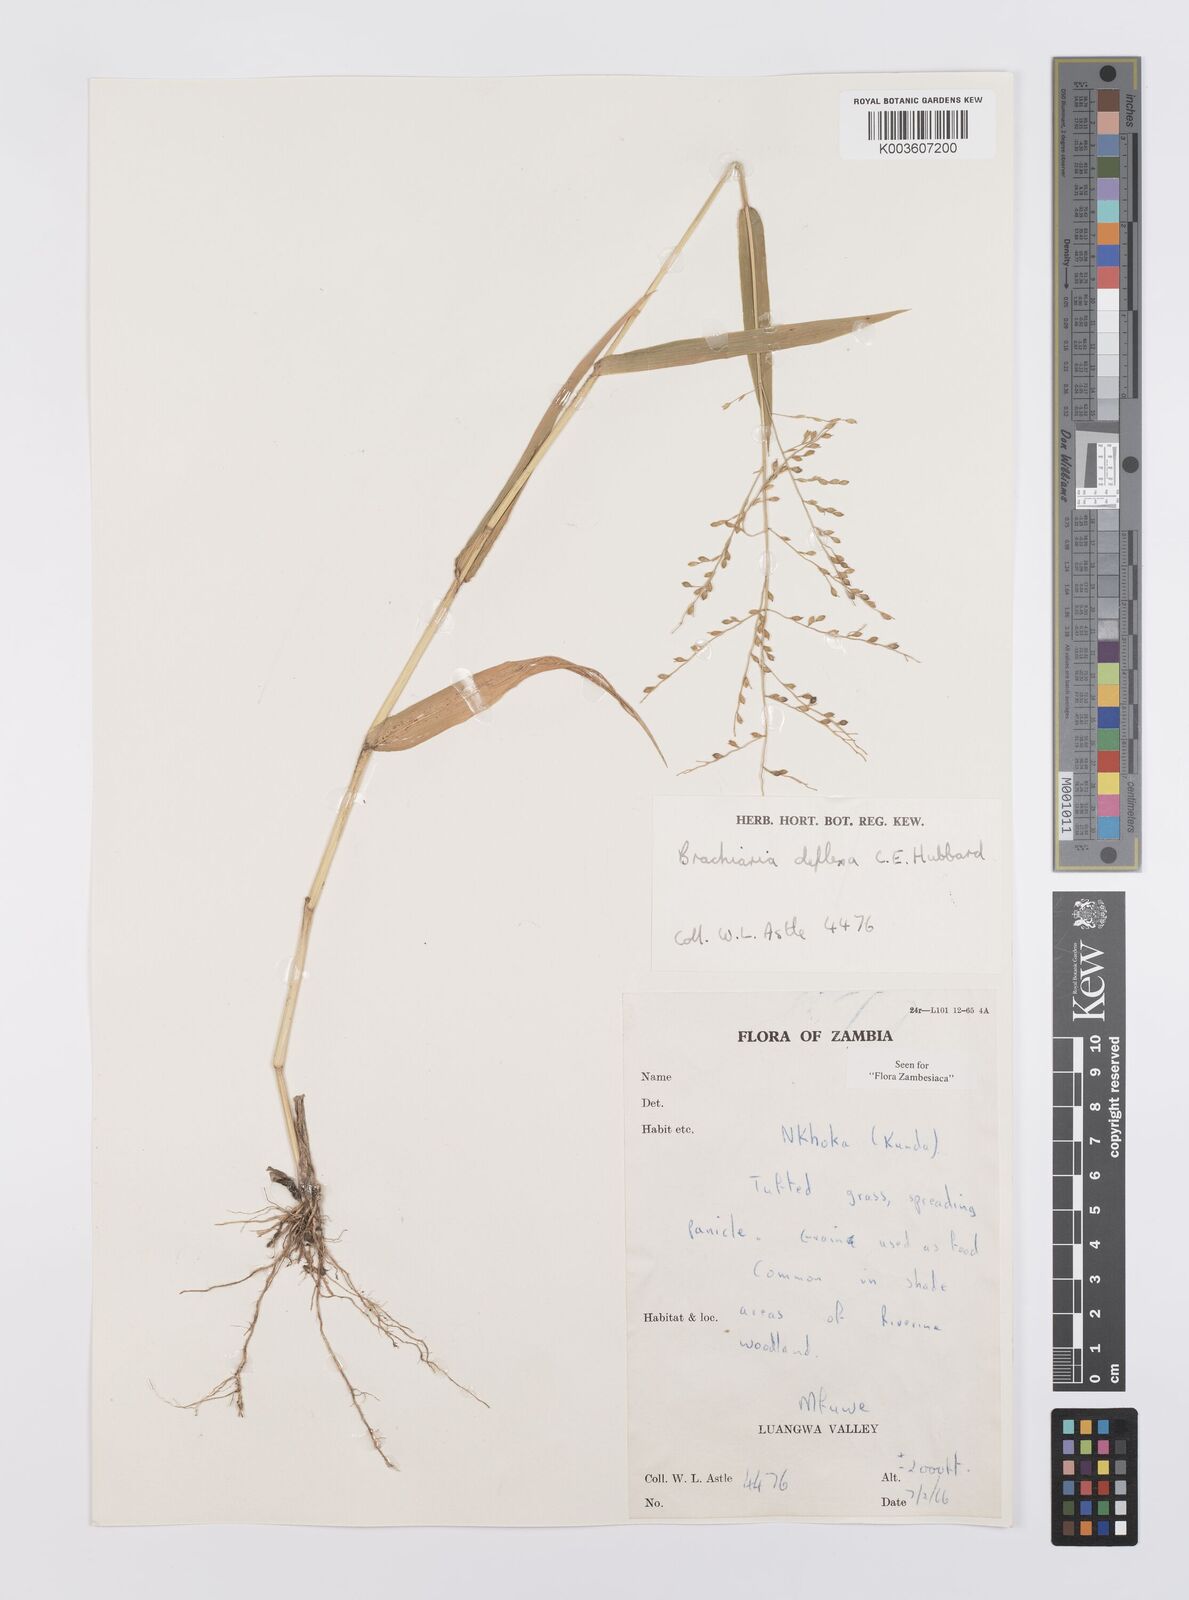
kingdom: Plantae
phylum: Tracheophyta
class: Liliopsida
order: Poales
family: Poaceae
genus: Urochloa
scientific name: Urochloa deflexa
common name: Guinea millet
